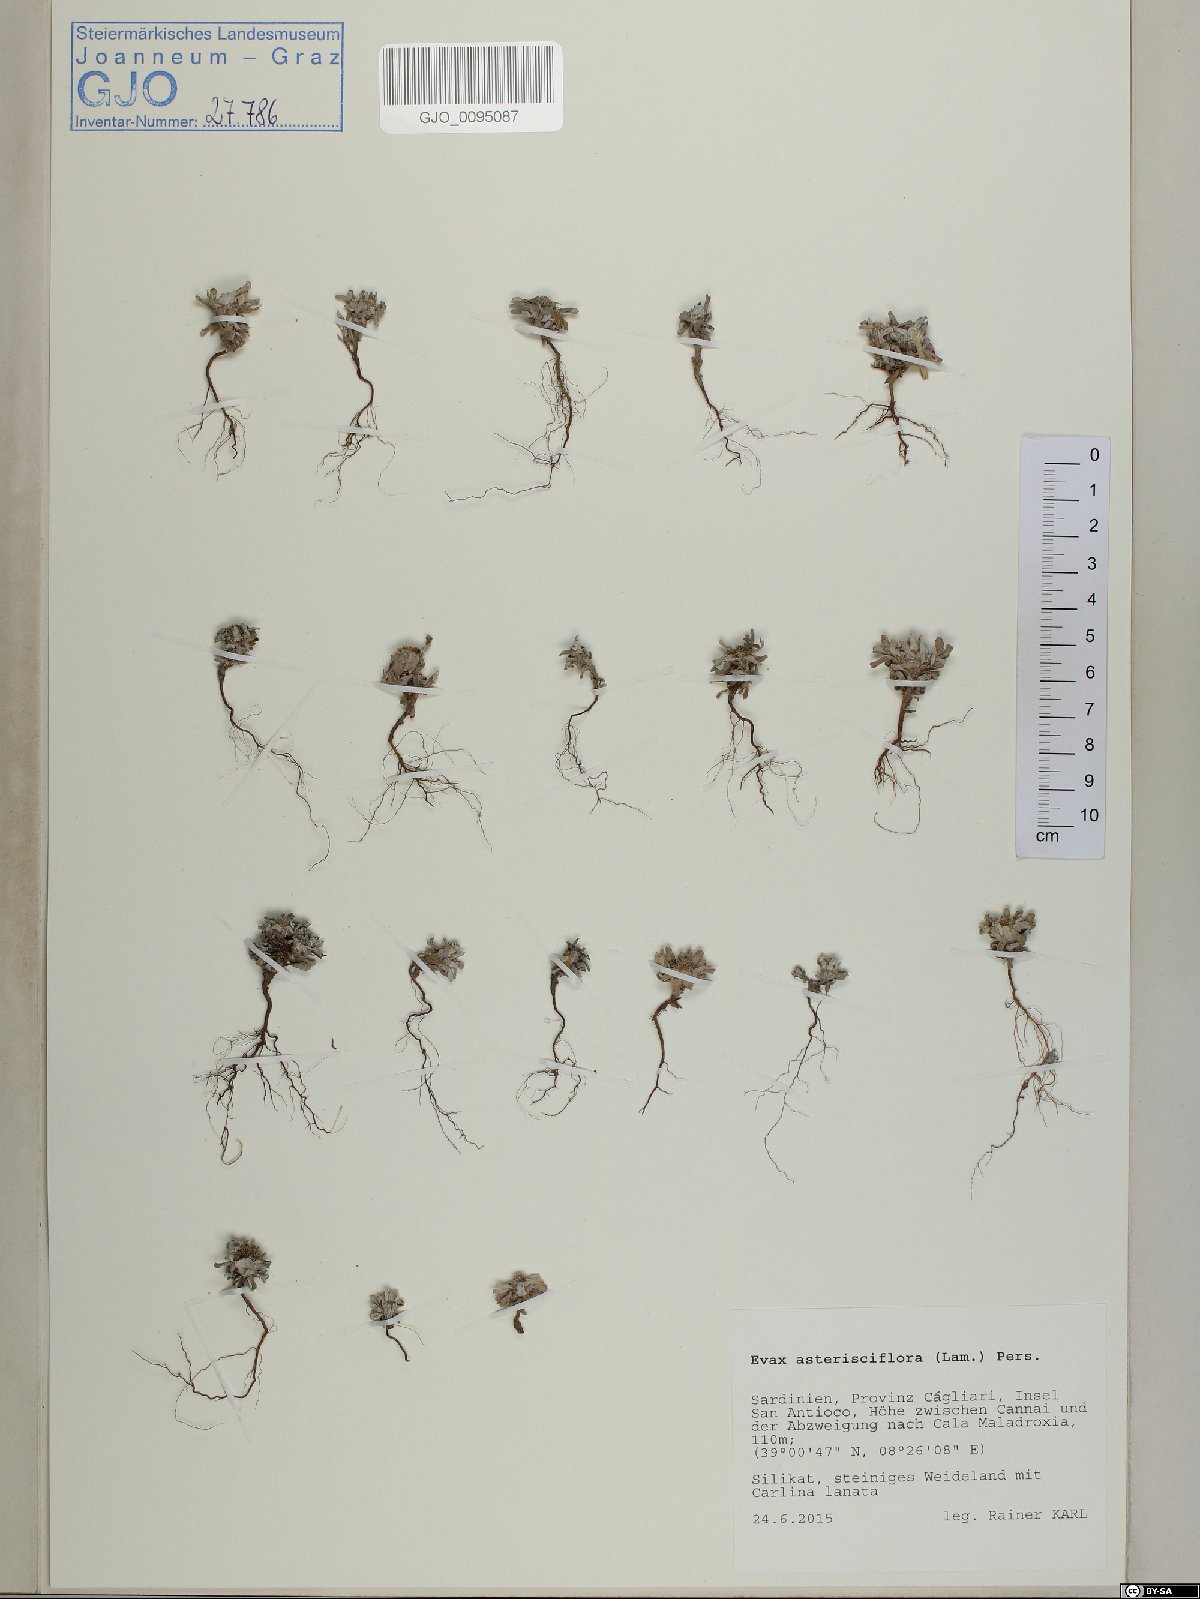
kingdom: Plantae
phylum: Tracheophyta
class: Magnoliopsida
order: Asterales
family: Asteraceae
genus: Filago
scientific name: Filago asterisciflora
